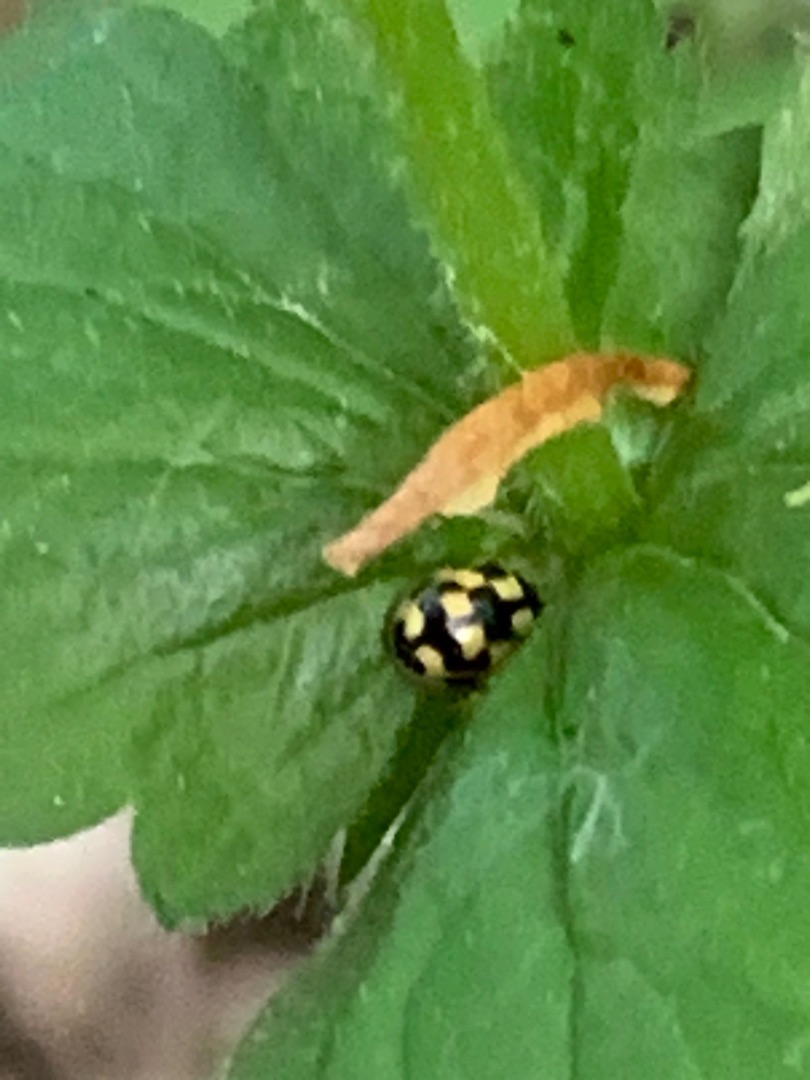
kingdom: Animalia
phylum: Arthropoda
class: Insecta
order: Coleoptera
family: Coccinellidae
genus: Propylaea
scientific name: Propylaea quatuordecimpunctata
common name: Skakbræt
